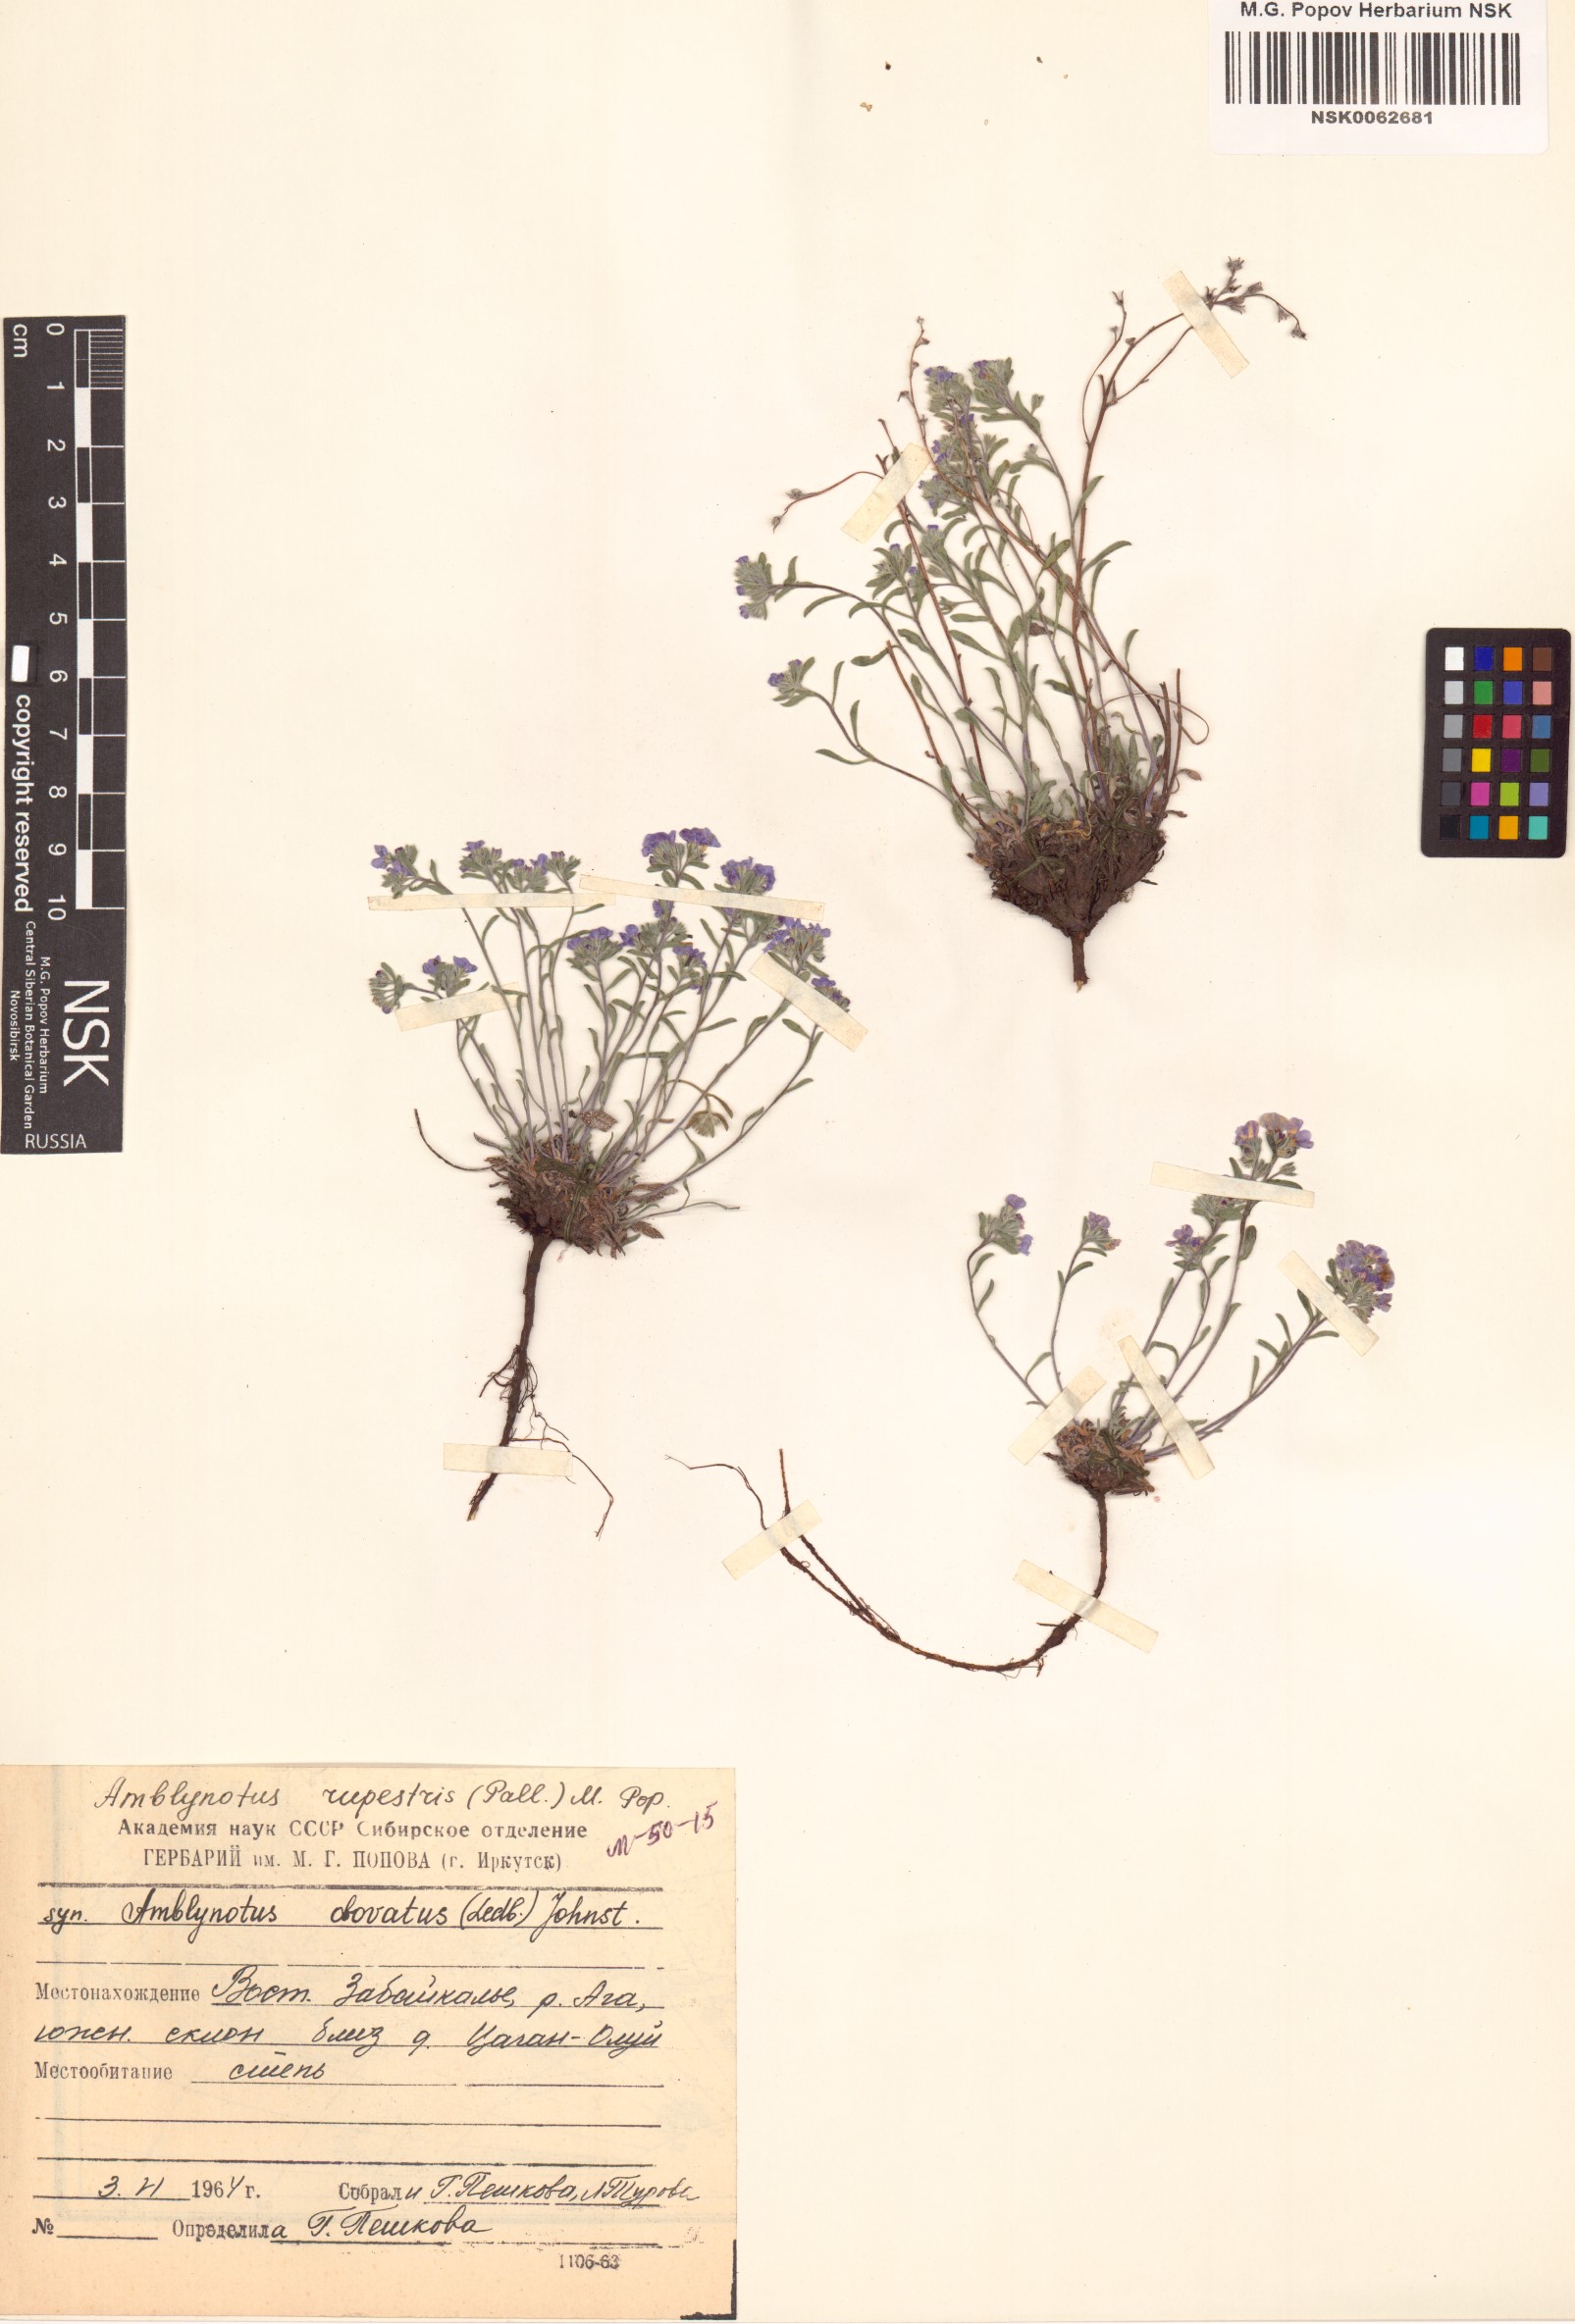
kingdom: Plantae
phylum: Tracheophyta
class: Magnoliopsida
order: Boraginales
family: Boraginaceae
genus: Eritrichium
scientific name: Eritrichium rupestre
